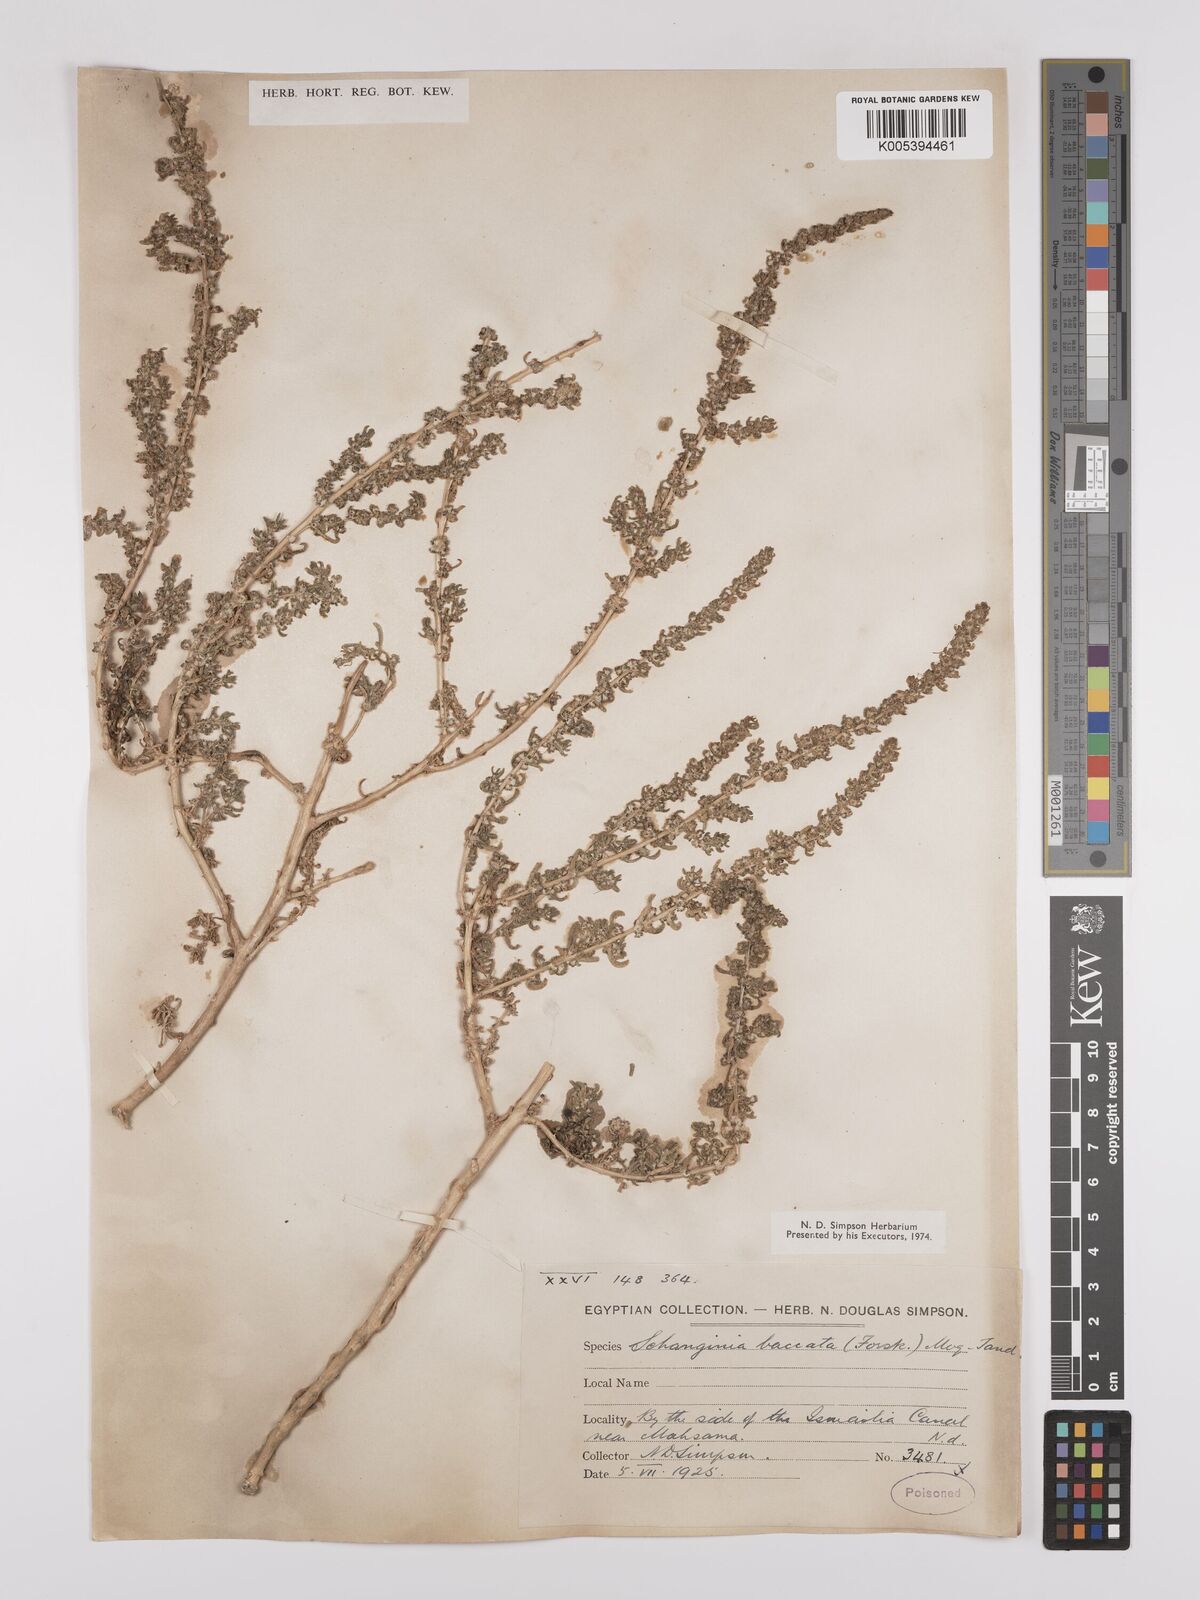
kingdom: Plantae
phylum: Tracheophyta
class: Magnoliopsida
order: Caryophyllales
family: Amaranthaceae
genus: Suaeda
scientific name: Suaeda aegyptiaca
